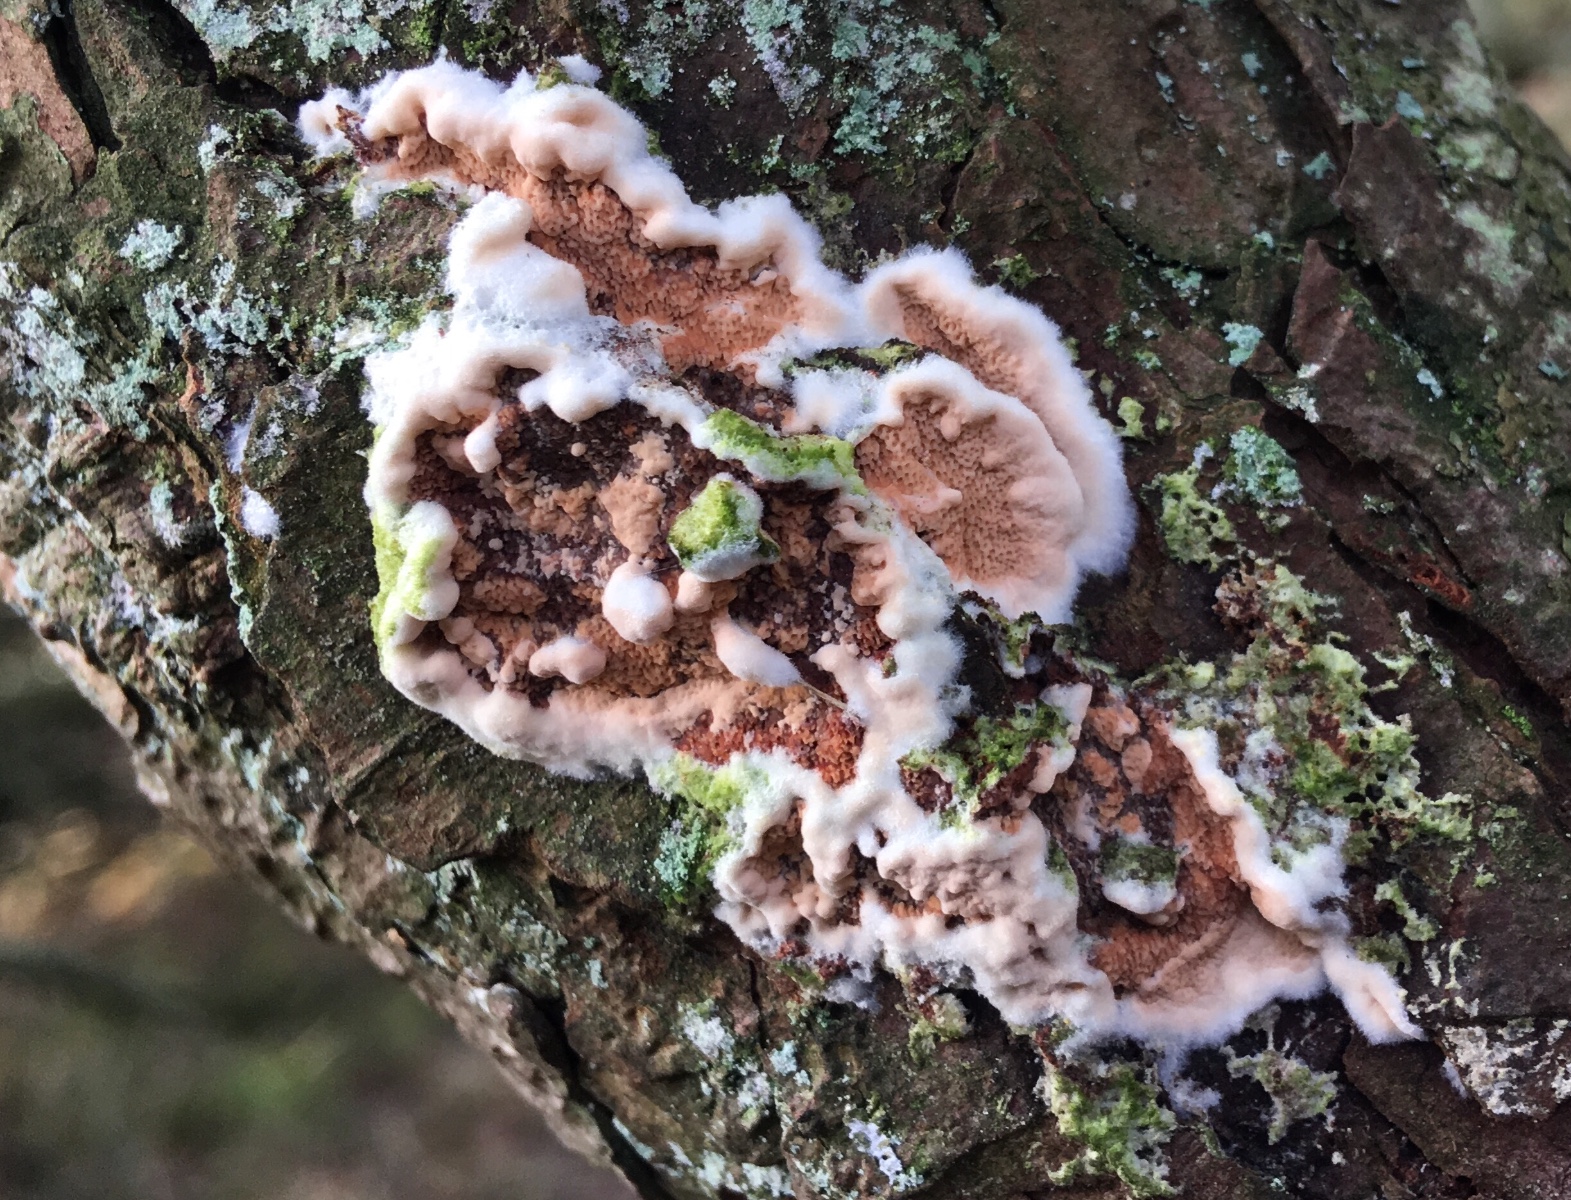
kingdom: Fungi
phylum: Basidiomycota
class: Agaricomycetes
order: Polyporales
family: Irpicaceae
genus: Meruliopsis
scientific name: Meruliopsis taxicola
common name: purpurbrun foldporesvamp
